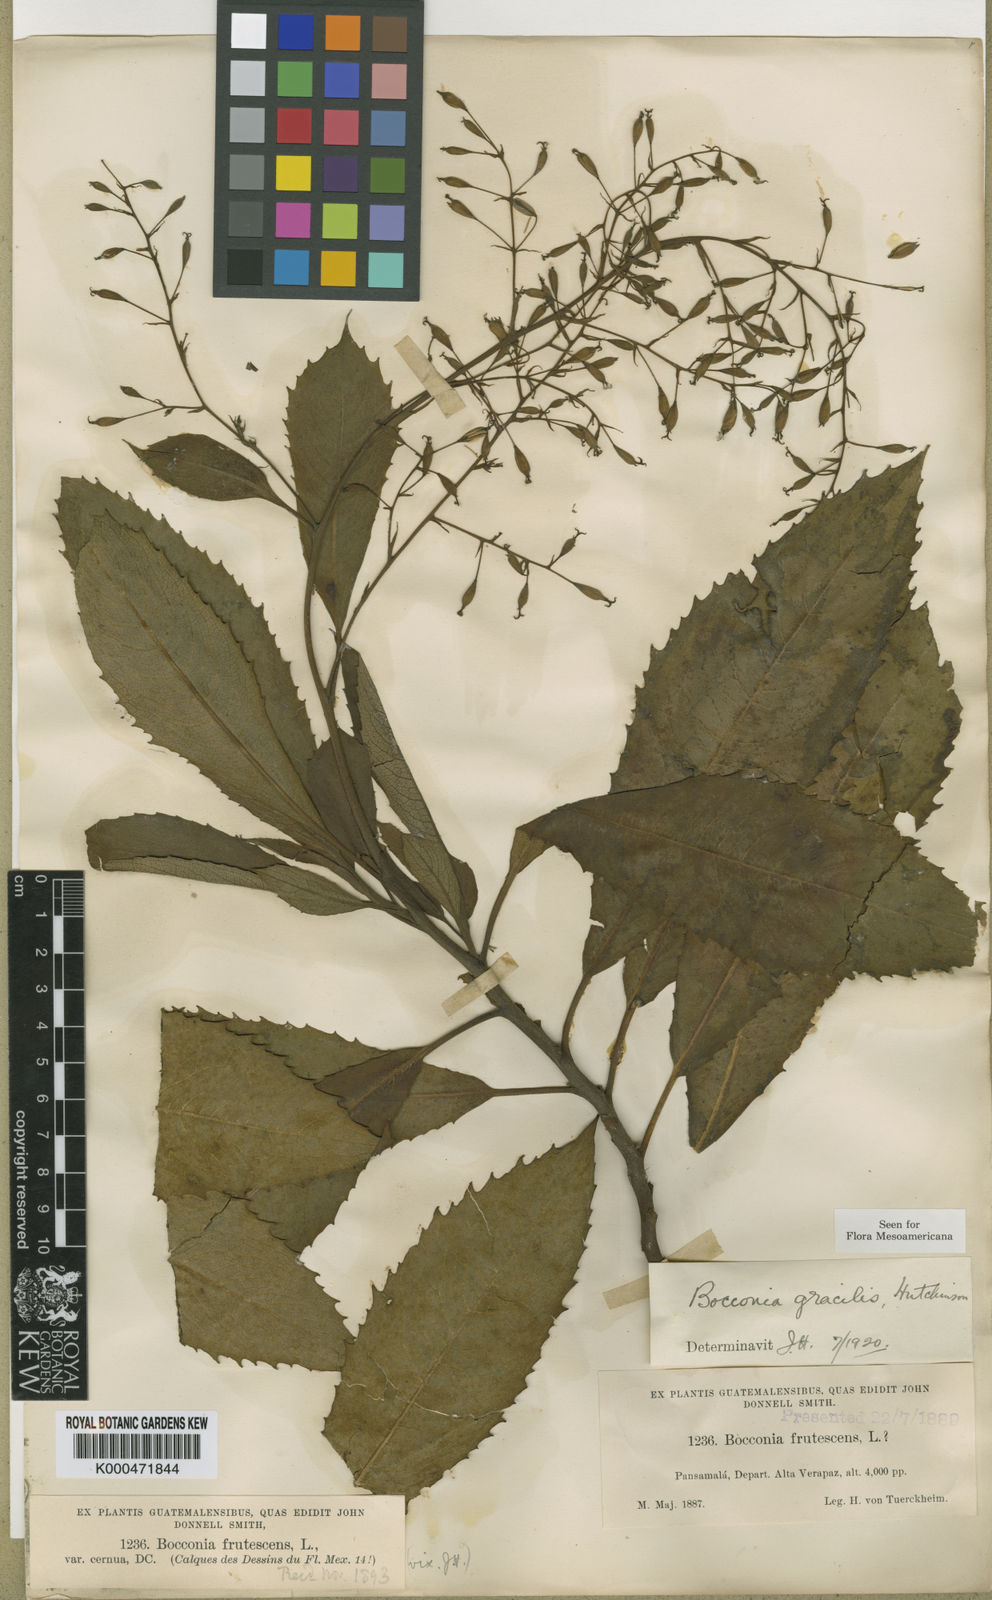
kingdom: Plantae
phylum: Tracheophyta
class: Magnoliopsida
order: Ranunculales
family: Papaveraceae
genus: Bocconia
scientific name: Bocconia frutescens
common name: Tree poppy
